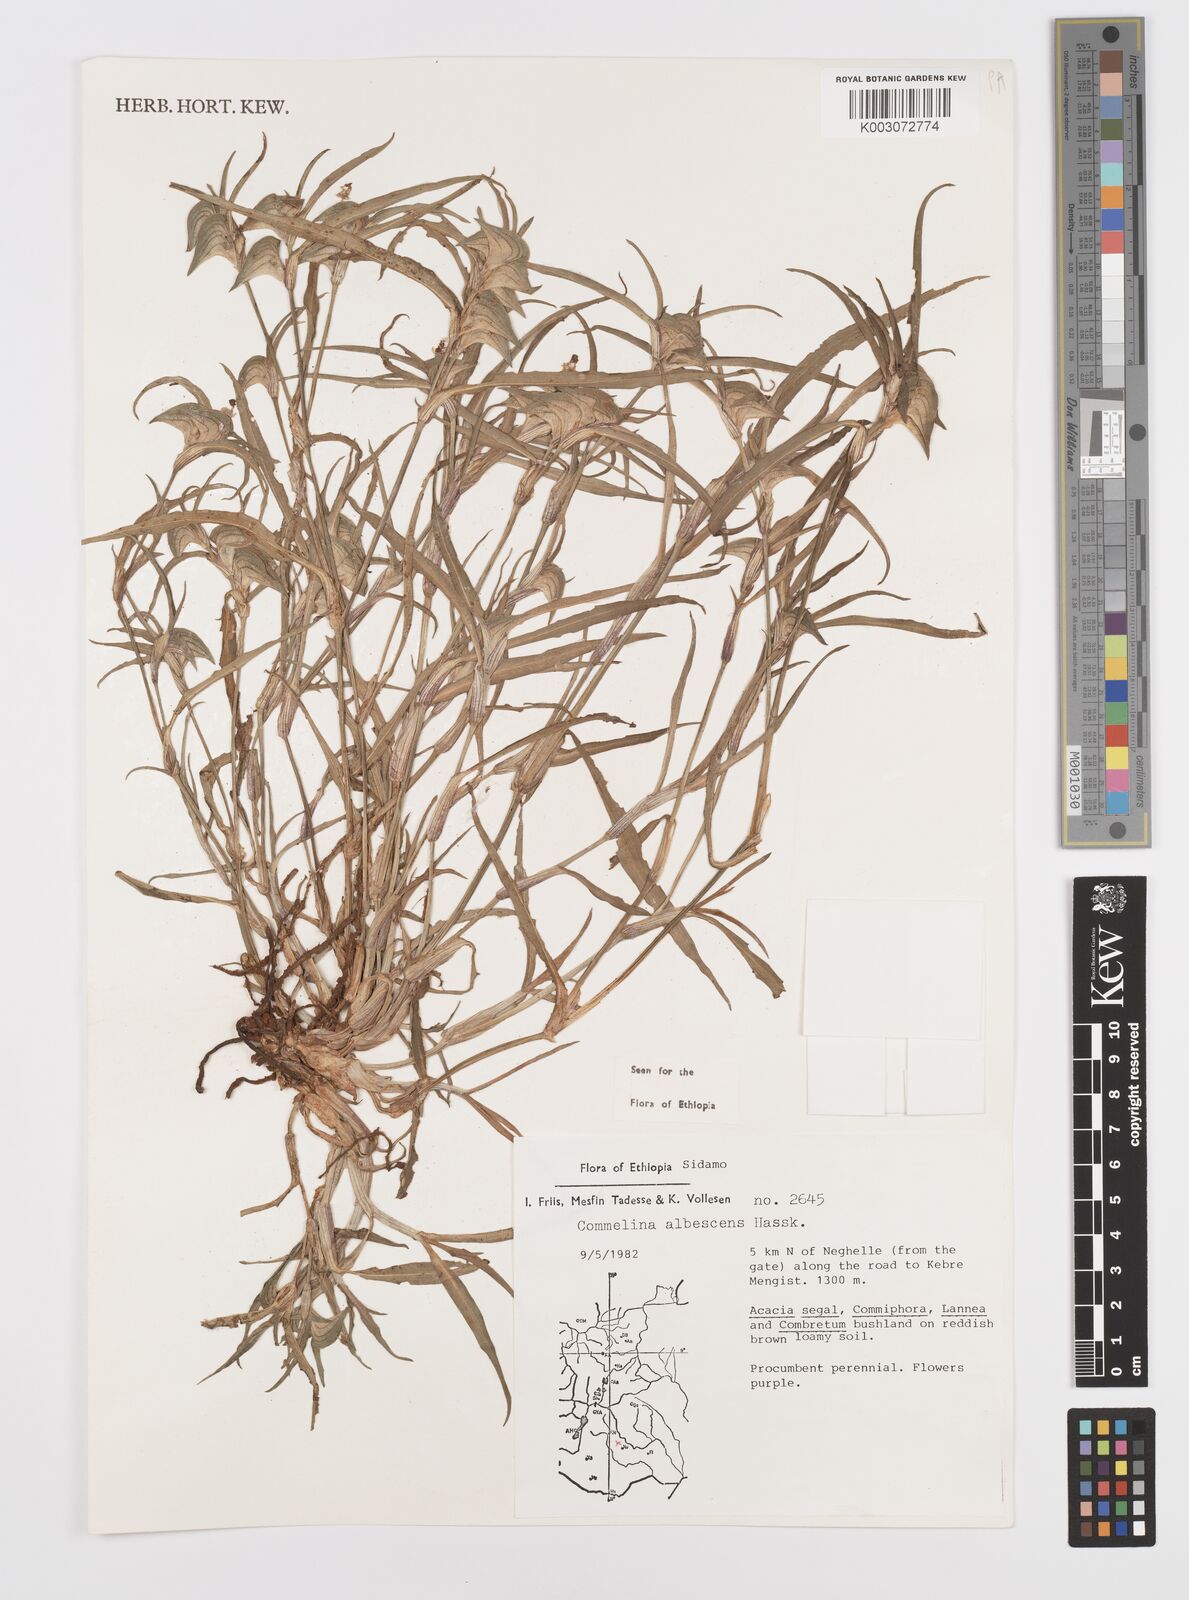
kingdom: Plantae
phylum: Tracheophyta
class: Liliopsida
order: Commelinales
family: Commelinaceae
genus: Commelina
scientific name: Commelina albescens
